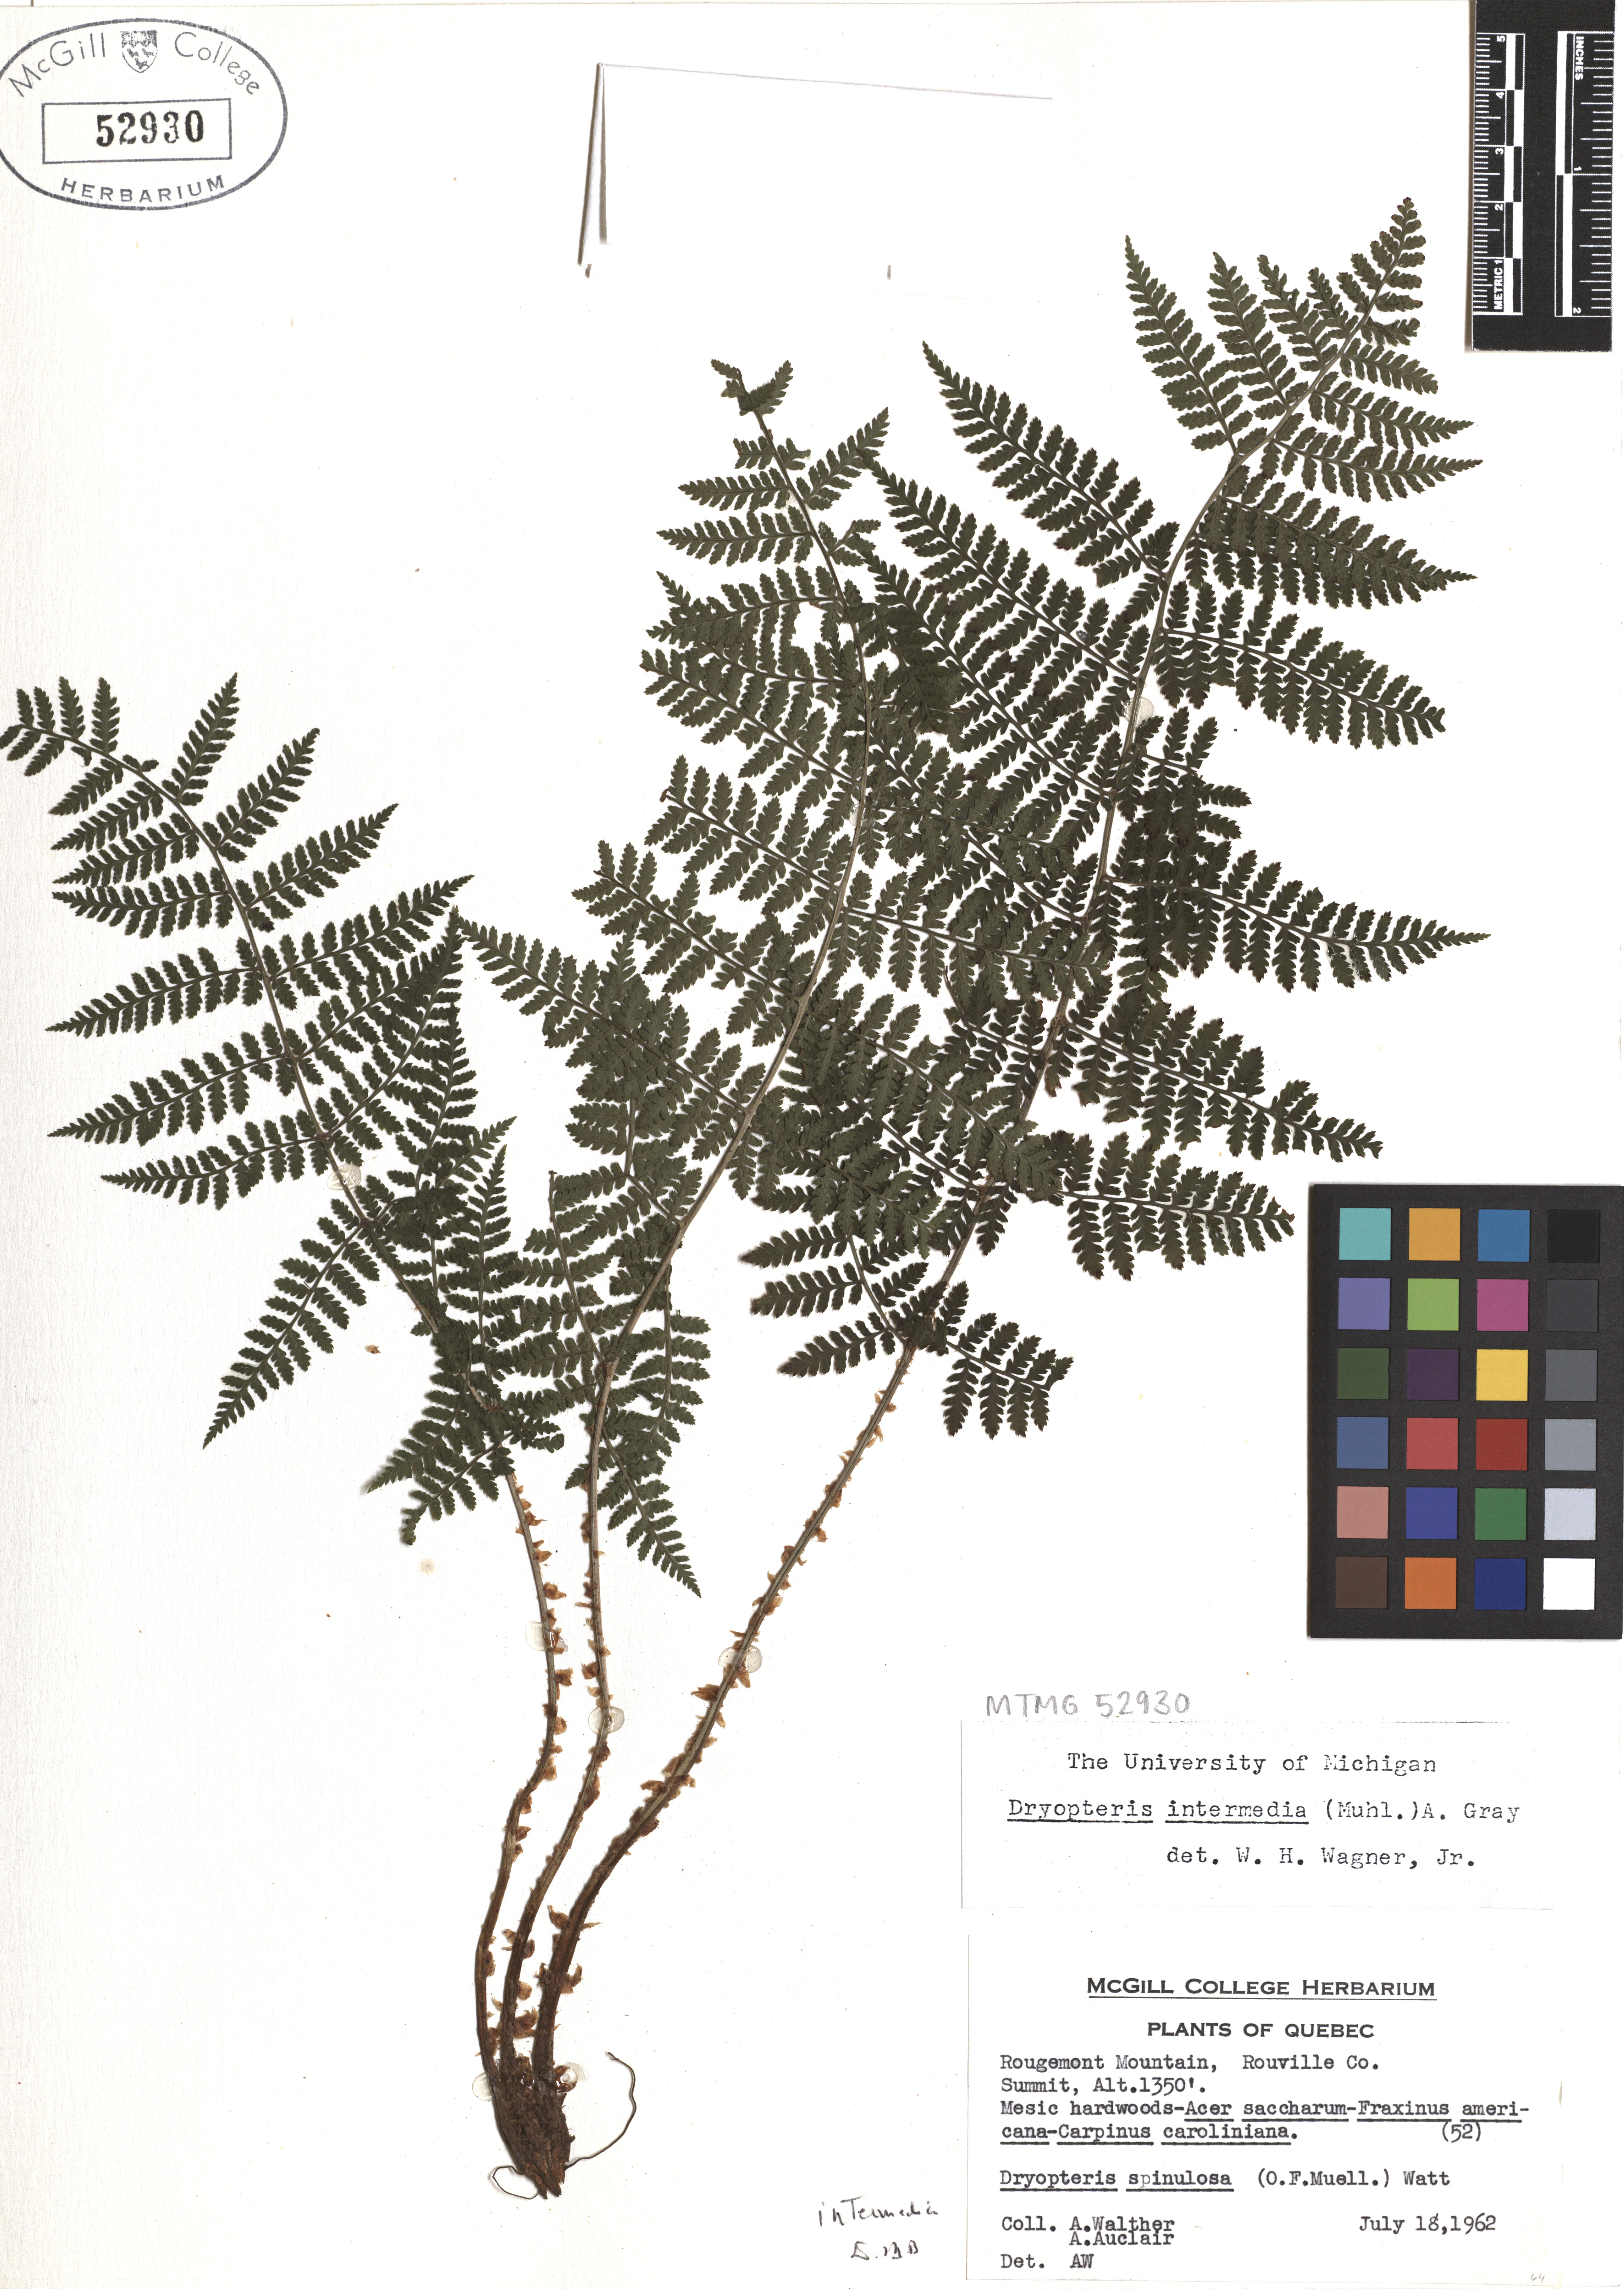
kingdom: Plantae
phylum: Tracheophyta
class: Polypodiopsida
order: Polypodiales
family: Dryopteridaceae
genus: Dryopteris
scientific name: Dryopteris intermedia
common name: Evergreen wood fern
